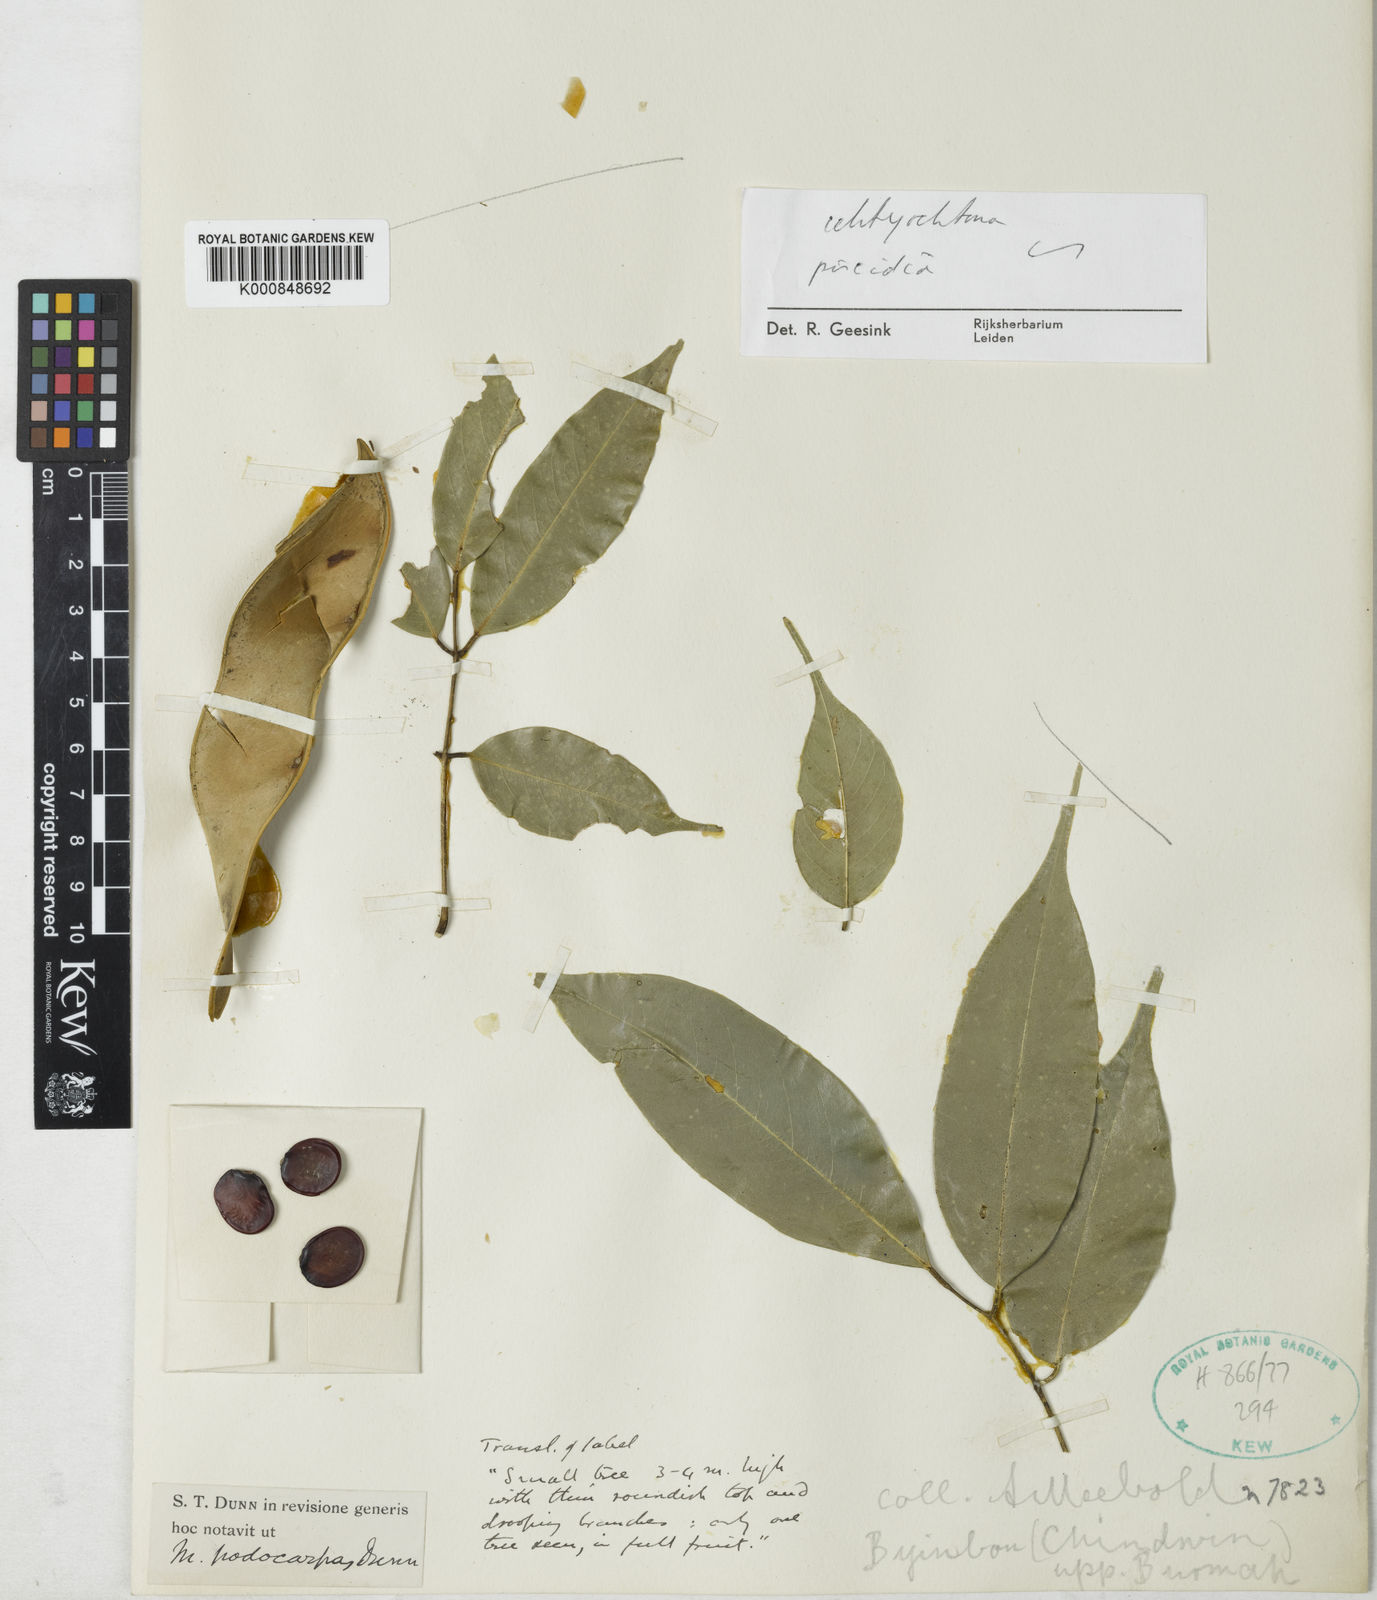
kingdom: Plantae
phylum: Tracheophyta
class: Magnoliopsida
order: Fabales
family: Fabaceae
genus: Millettia
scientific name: Millettia podocarpa
